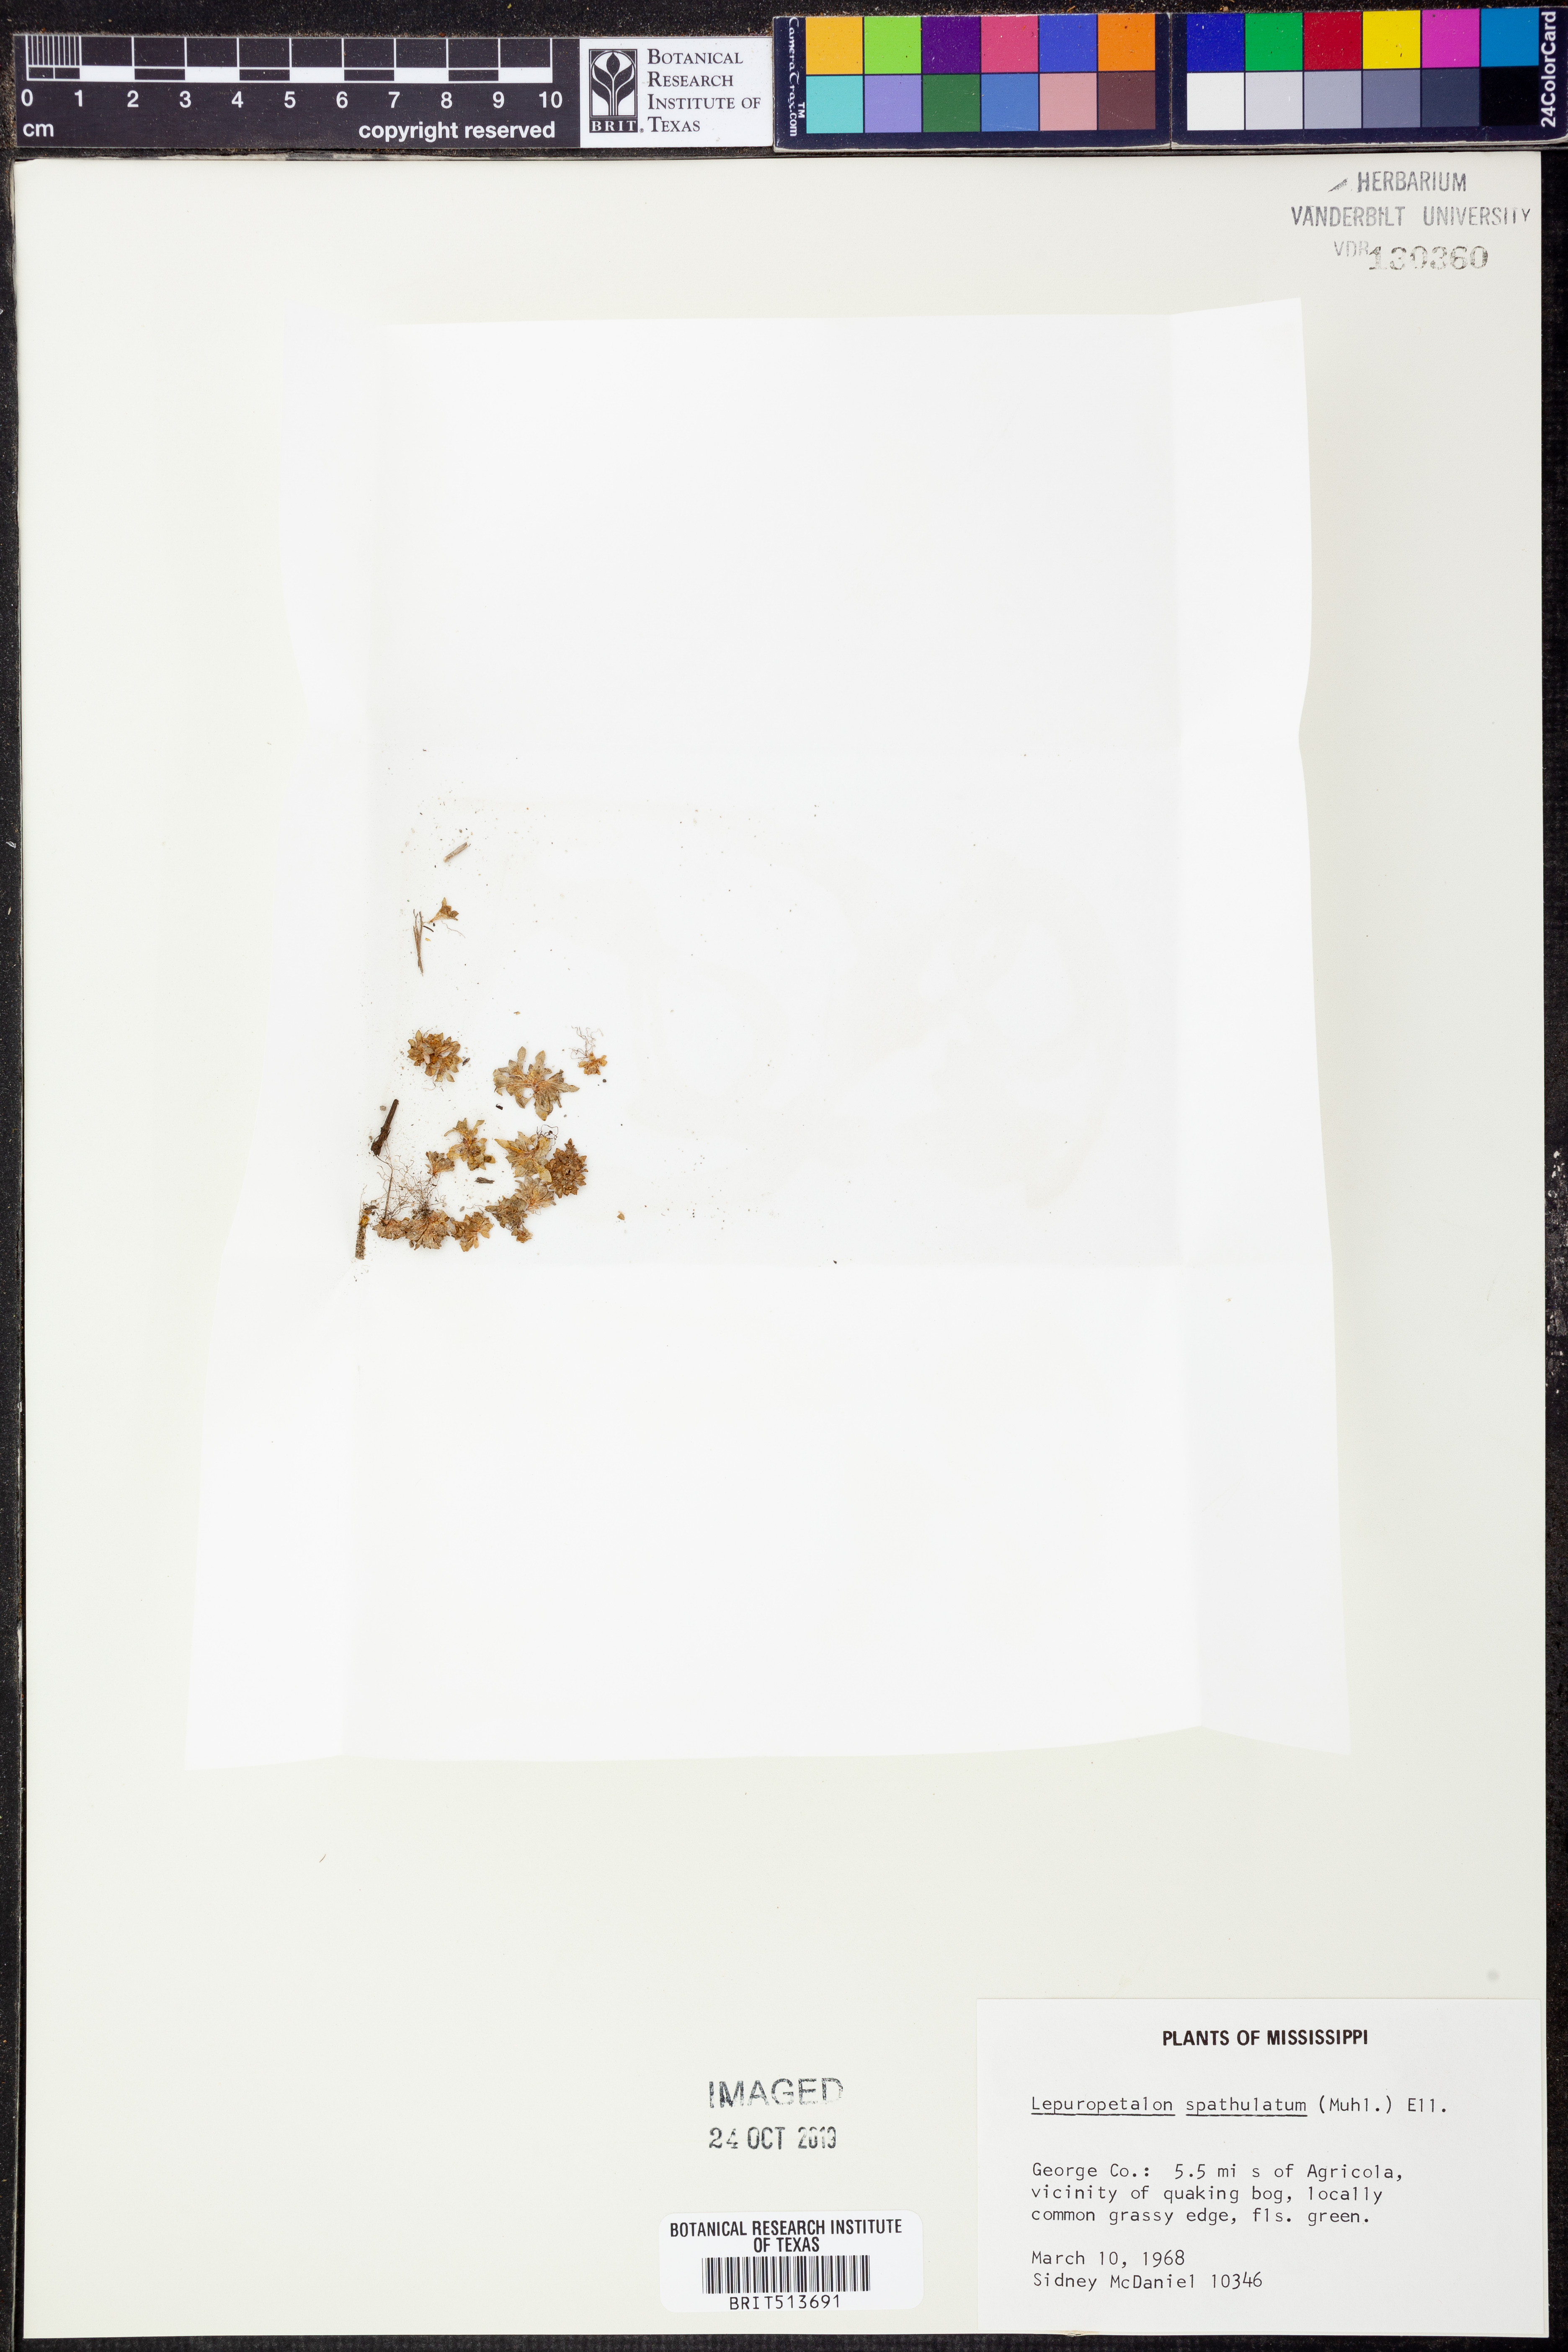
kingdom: Plantae
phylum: Tracheophyta
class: Magnoliopsida
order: Celastrales
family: Parnassiaceae
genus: Lepuropetalon
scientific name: Lepuropetalon spathulatum
